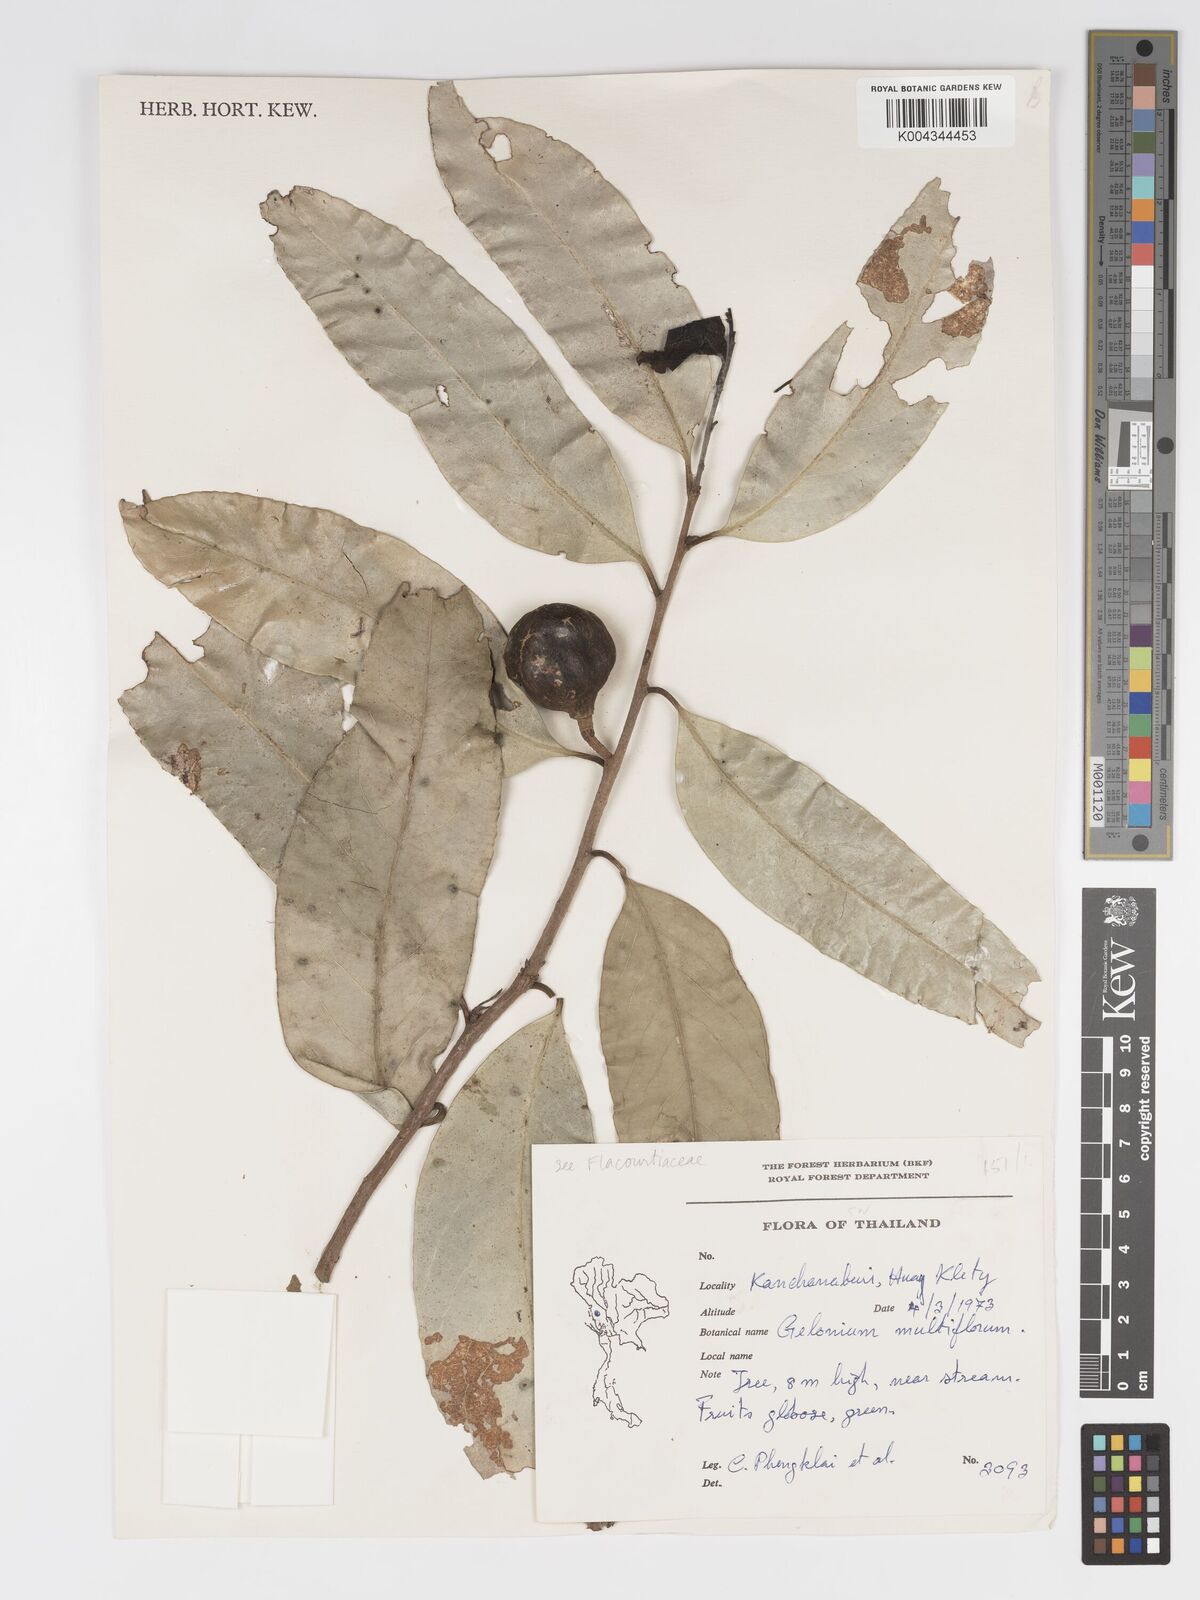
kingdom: Plantae
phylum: Tracheophyta
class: Magnoliopsida
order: Malpighiales
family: Putranjivaceae
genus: Drypetes
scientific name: Drypetes
